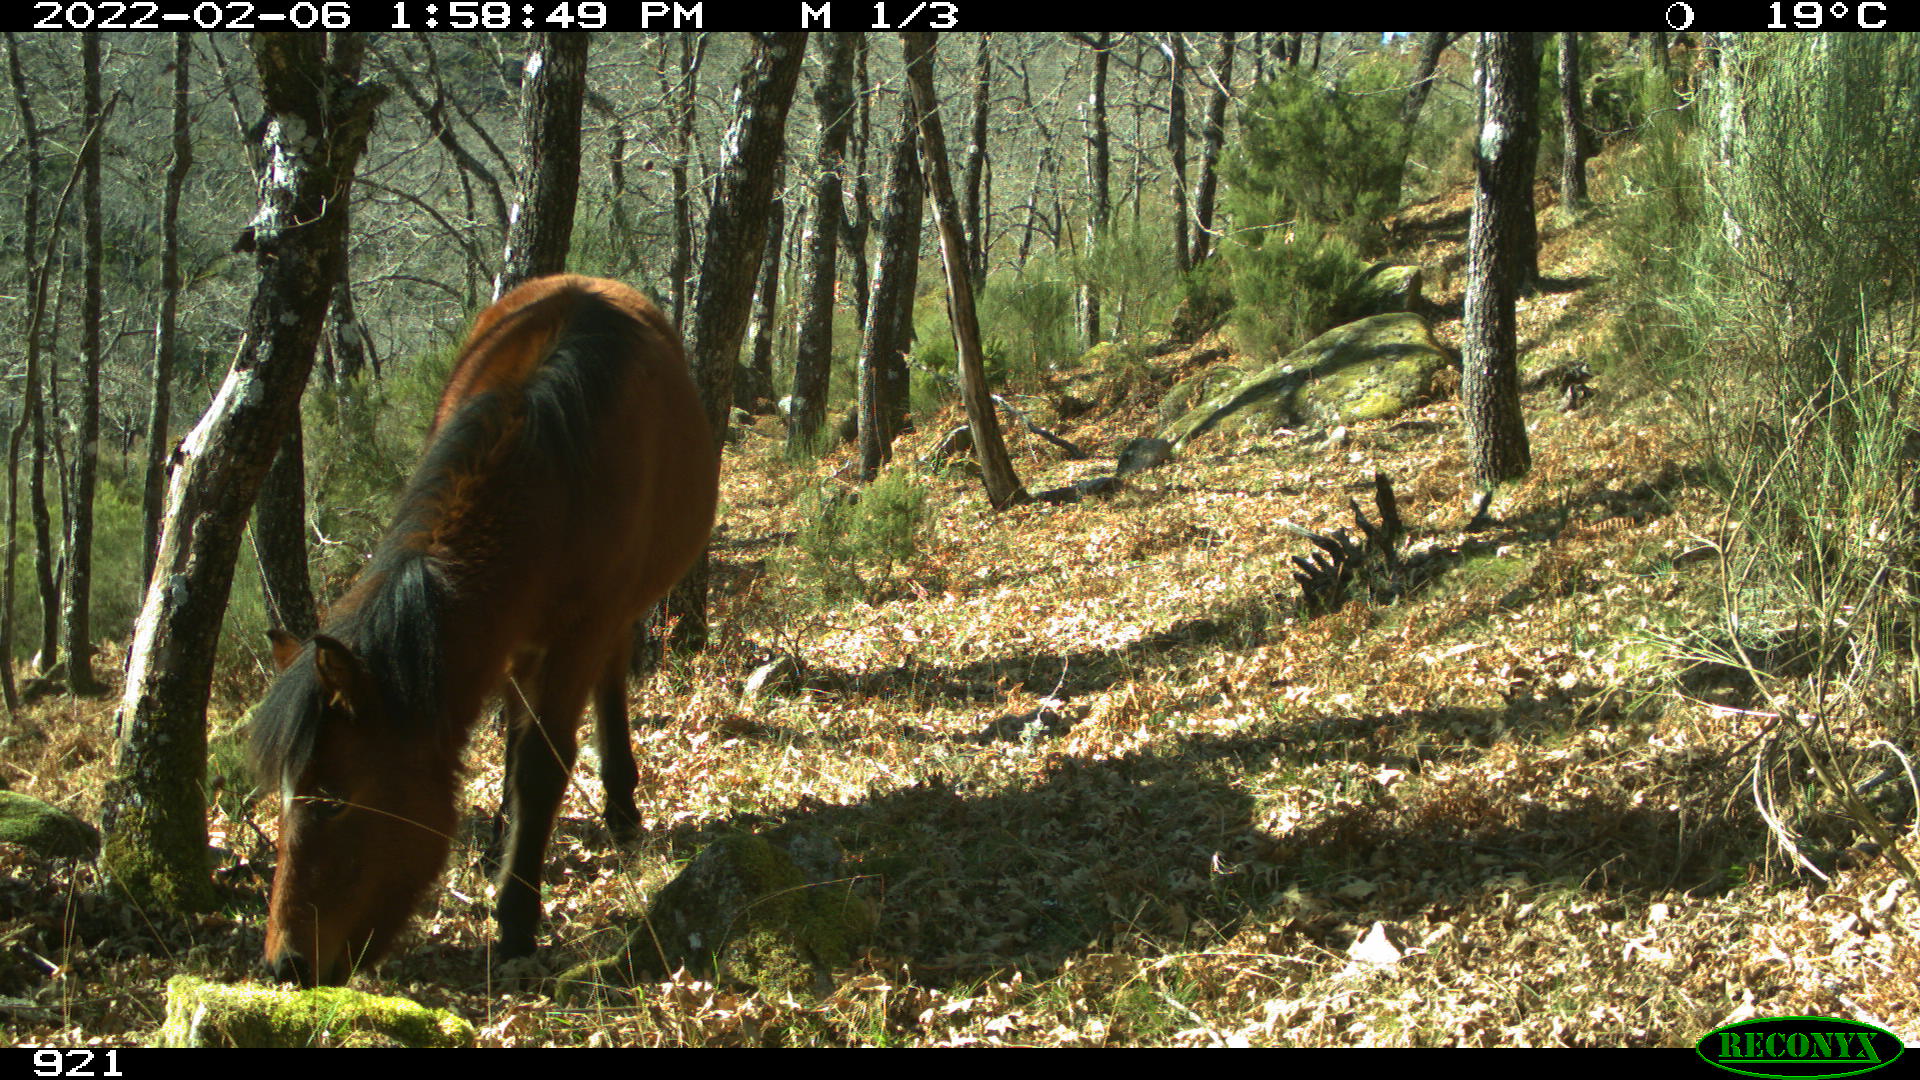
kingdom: Animalia
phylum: Chordata
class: Mammalia
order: Perissodactyla
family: Equidae
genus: Equus
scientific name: Equus caballus
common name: Horse
